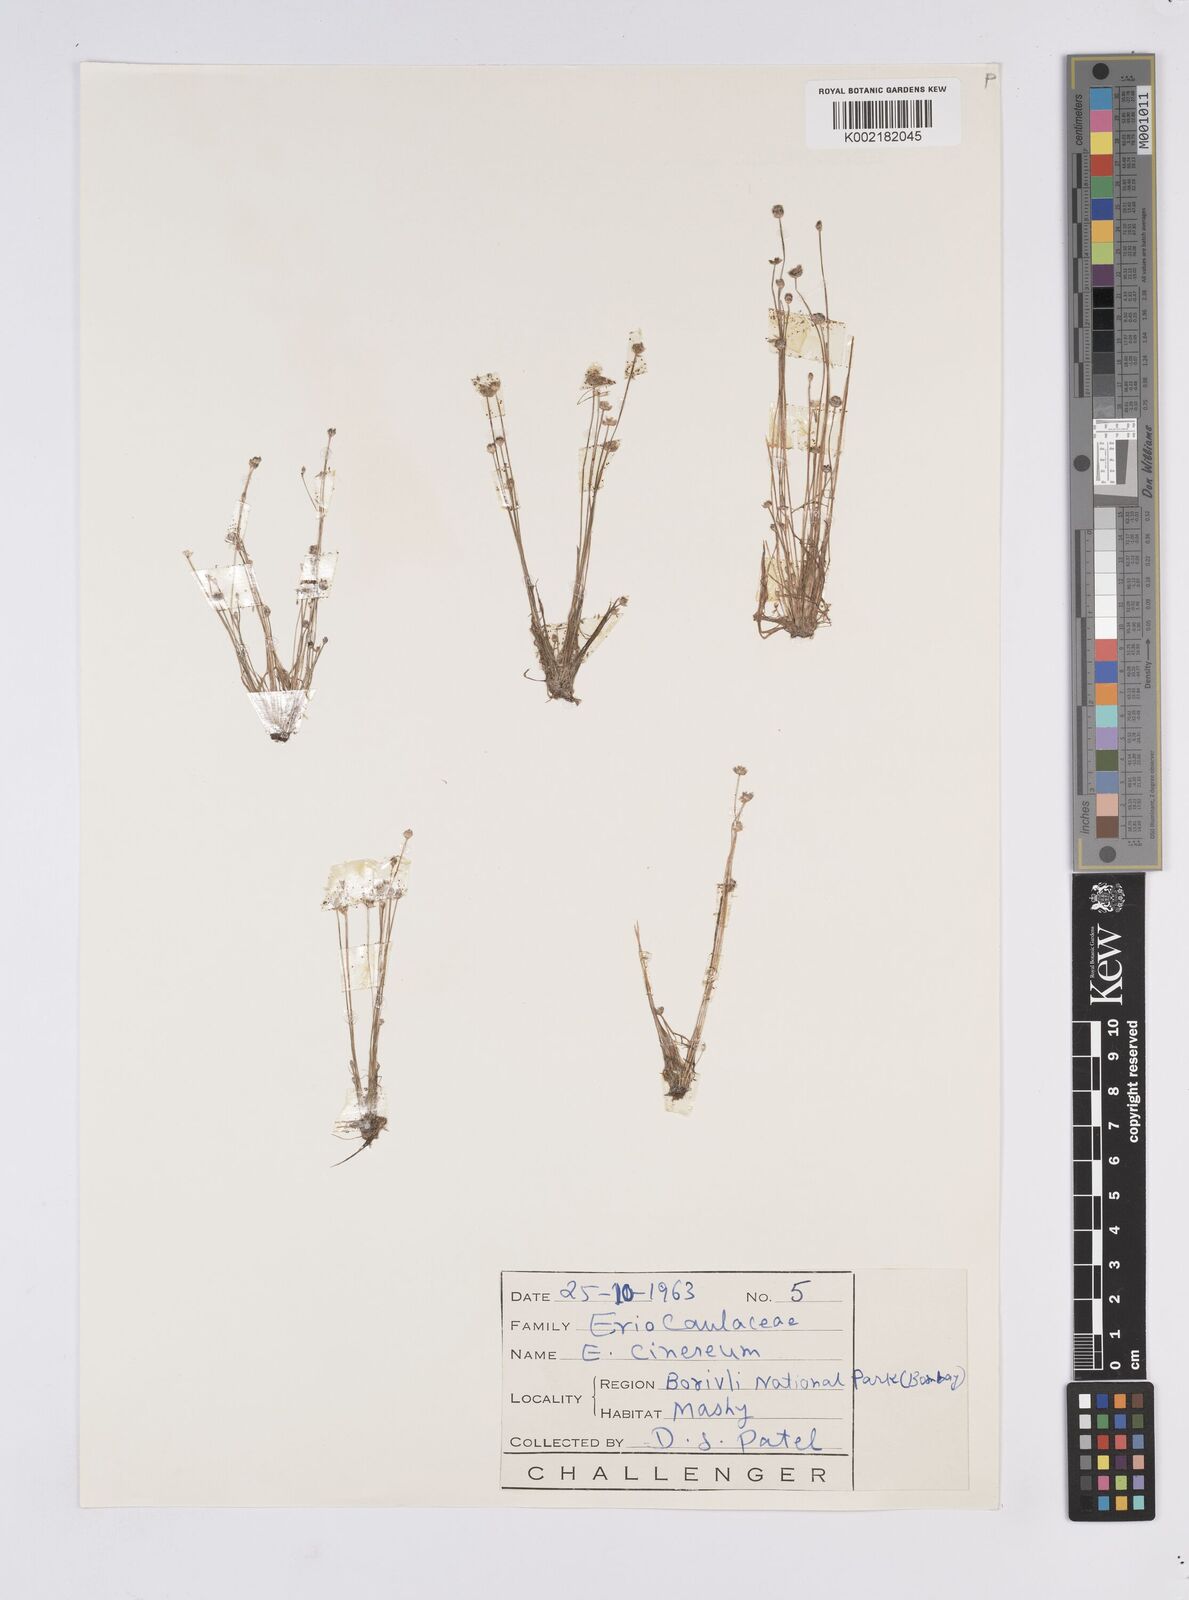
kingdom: Plantae
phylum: Tracheophyta
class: Liliopsida
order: Poales
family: Eriocaulaceae
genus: Eriocaulon
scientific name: Eriocaulon cinereum
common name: Ashy pipewort
